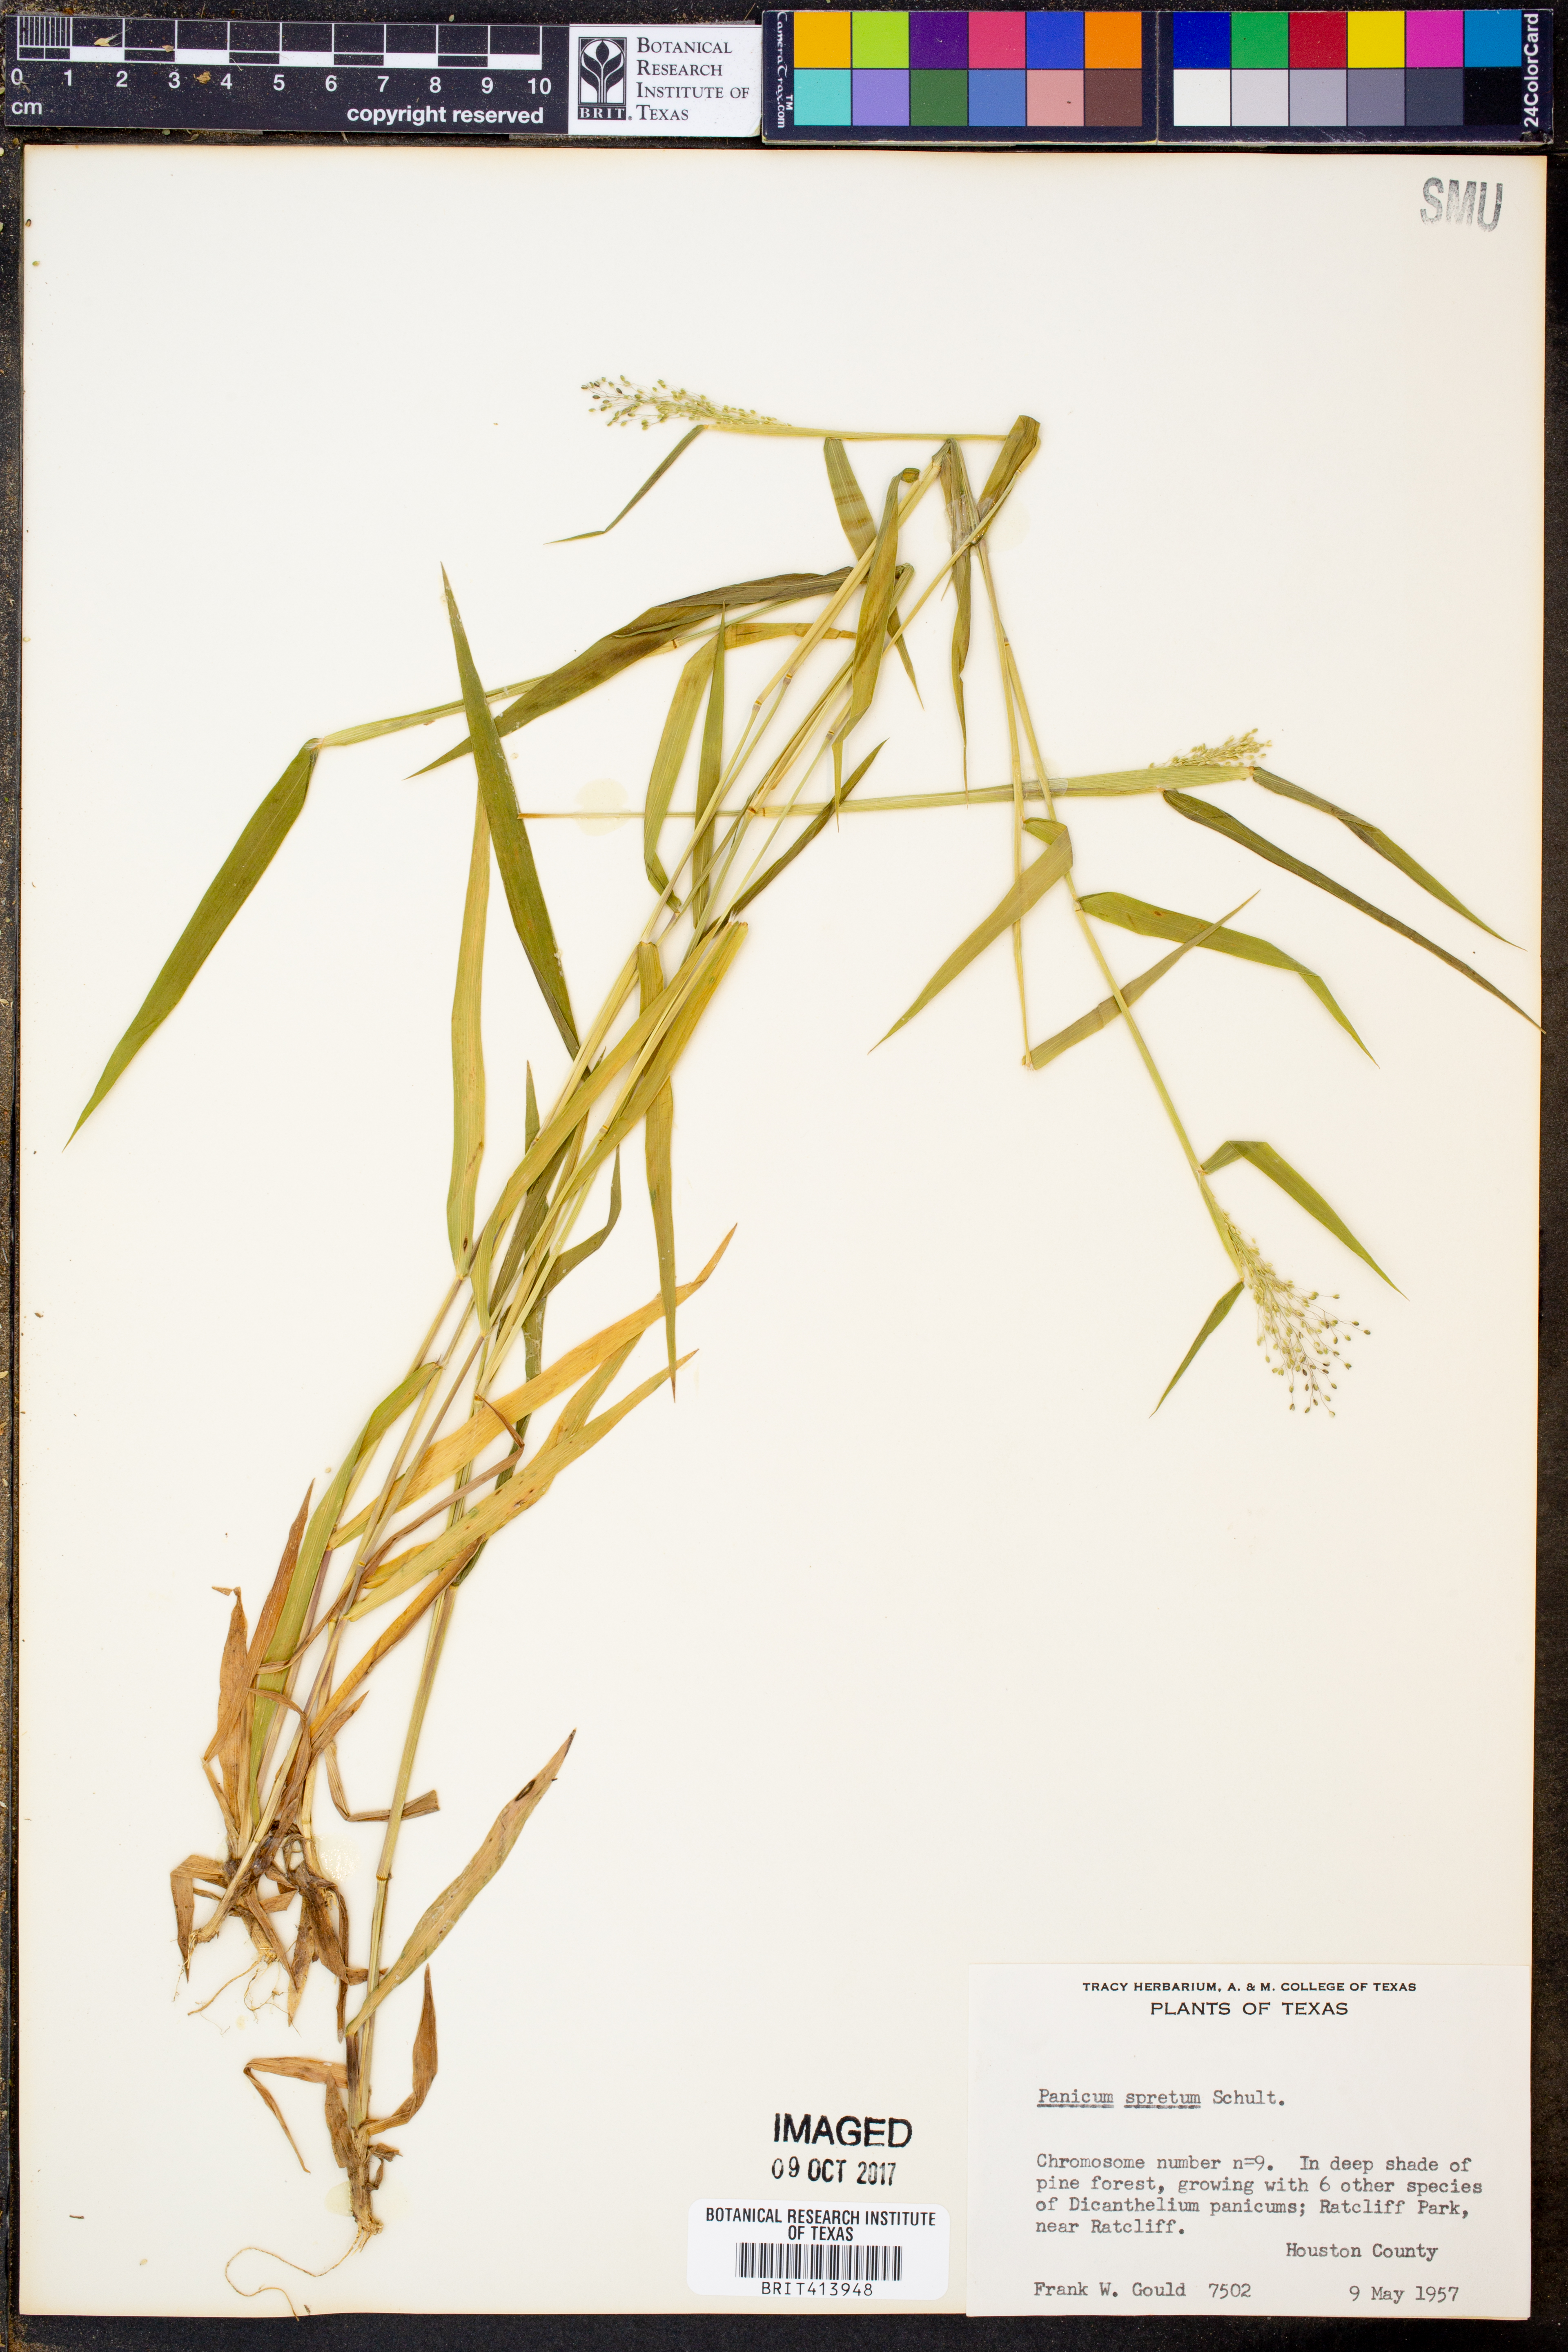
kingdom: Plantae
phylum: Tracheophyta
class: Liliopsida
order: Poales
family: Poaceae
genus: Dichanthelium
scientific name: Dichanthelium spretum
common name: Eaton's panicgrass
